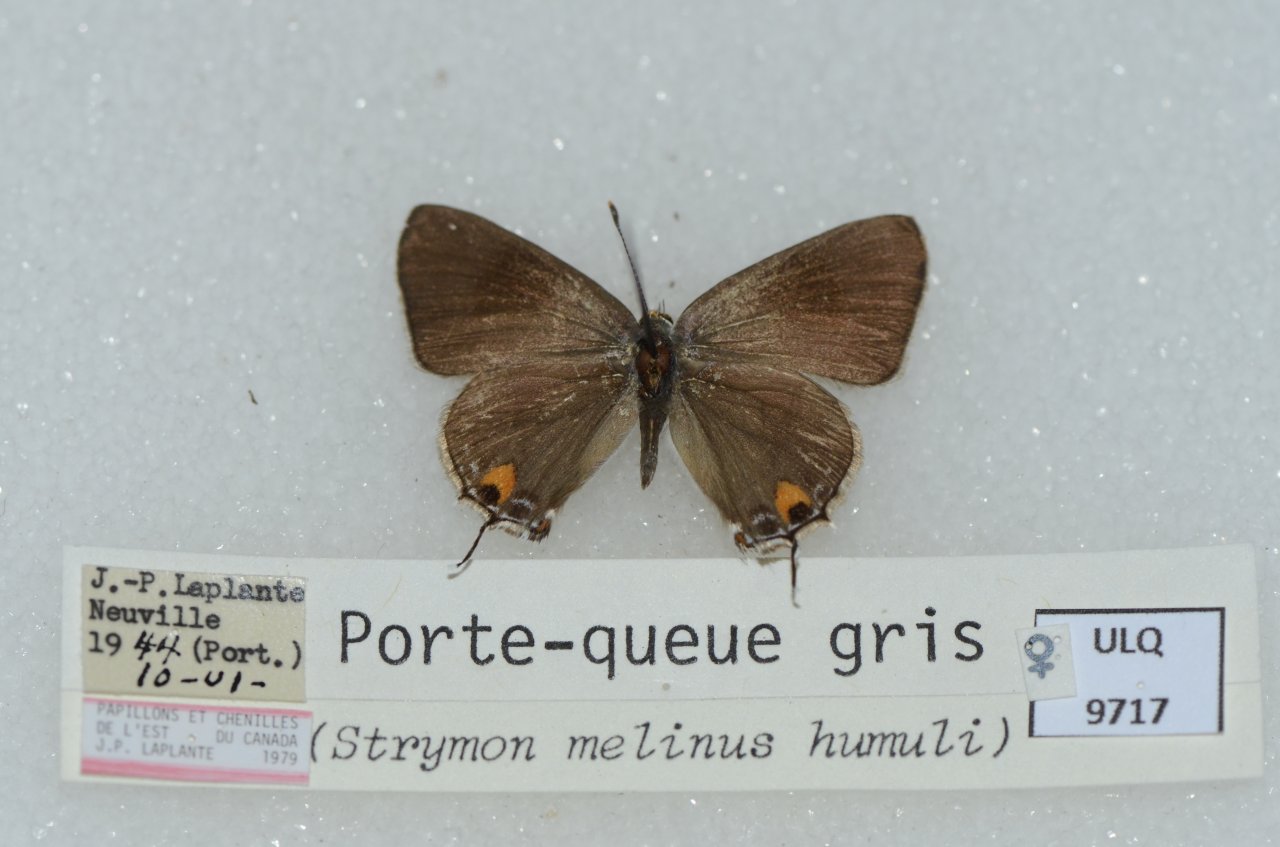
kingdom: Animalia
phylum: Arthropoda
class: Insecta
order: Lepidoptera
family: Lycaenidae
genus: Strymon
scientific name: Strymon melinus
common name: Gray Hairstreak
